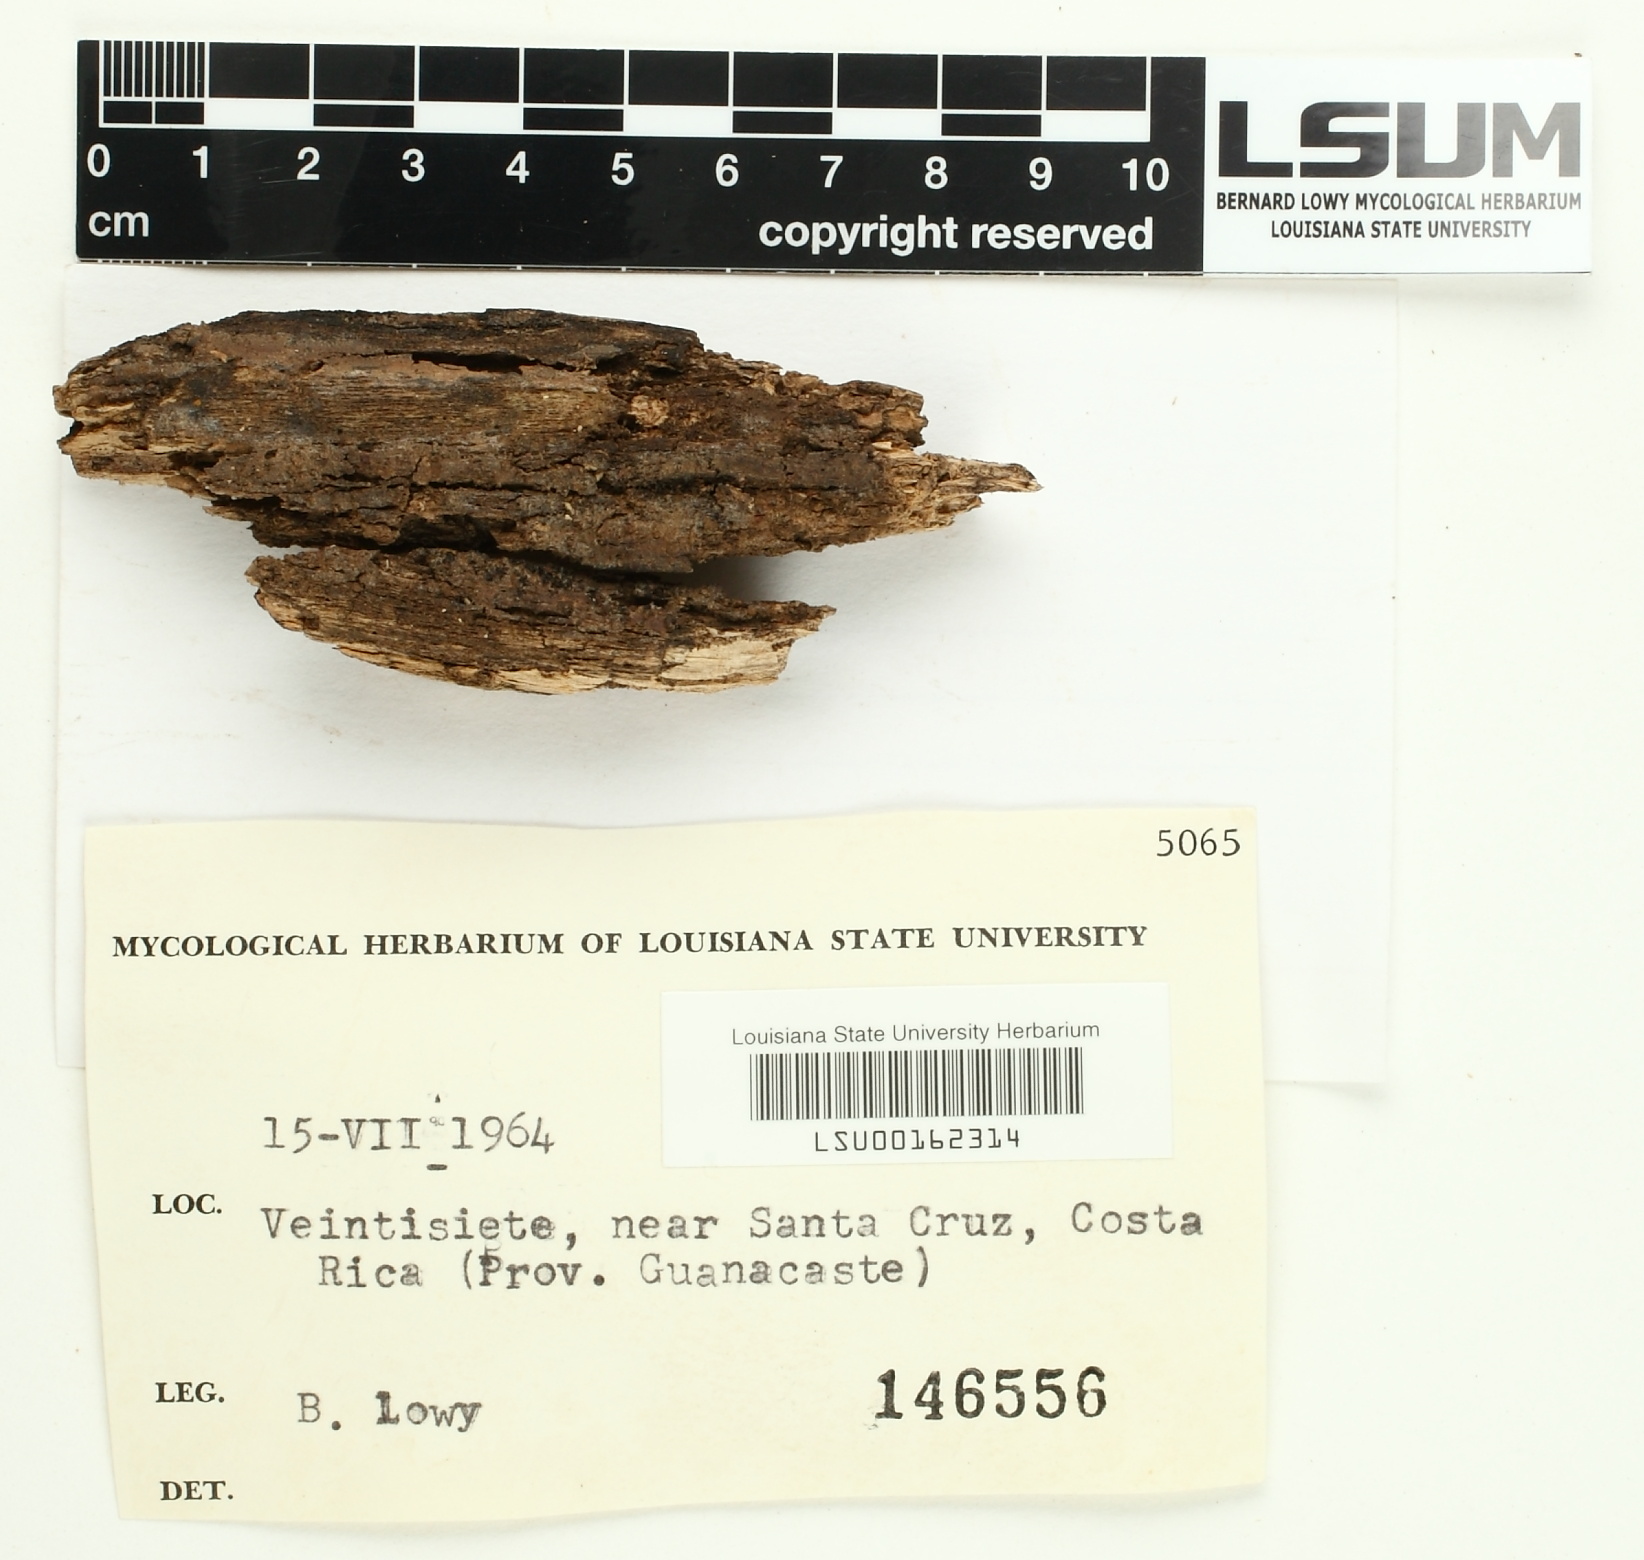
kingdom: Fungi
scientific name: Fungi
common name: Fungi
